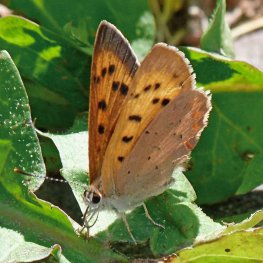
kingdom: Animalia
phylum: Arthropoda
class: Insecta
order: Lepidoptera
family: Sesiidae
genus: Sesia
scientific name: Sesia Lycaena helloides
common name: Purplish Copper
